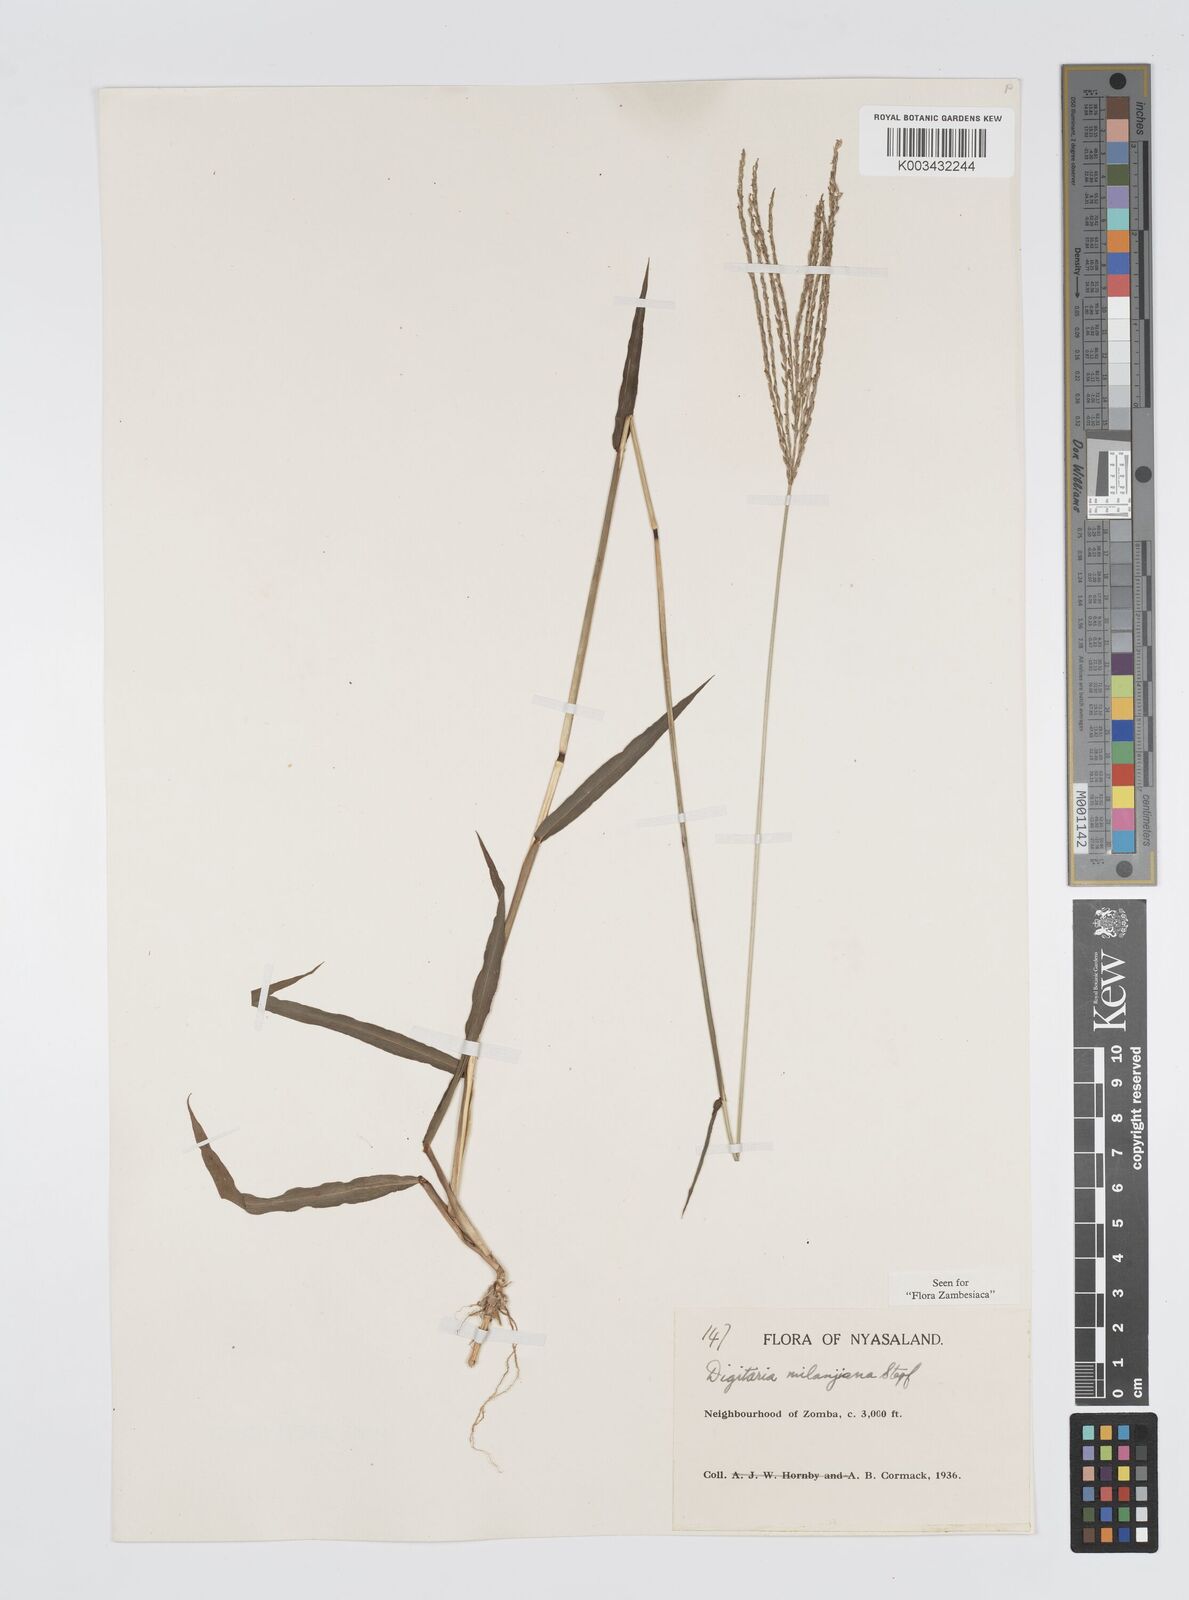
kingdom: Plantae
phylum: Tracheophyta
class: Liliopsida
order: Poales
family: Poaceae
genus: Digitaria
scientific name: Digitaria milanjiana
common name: Madagascar crabgrass
